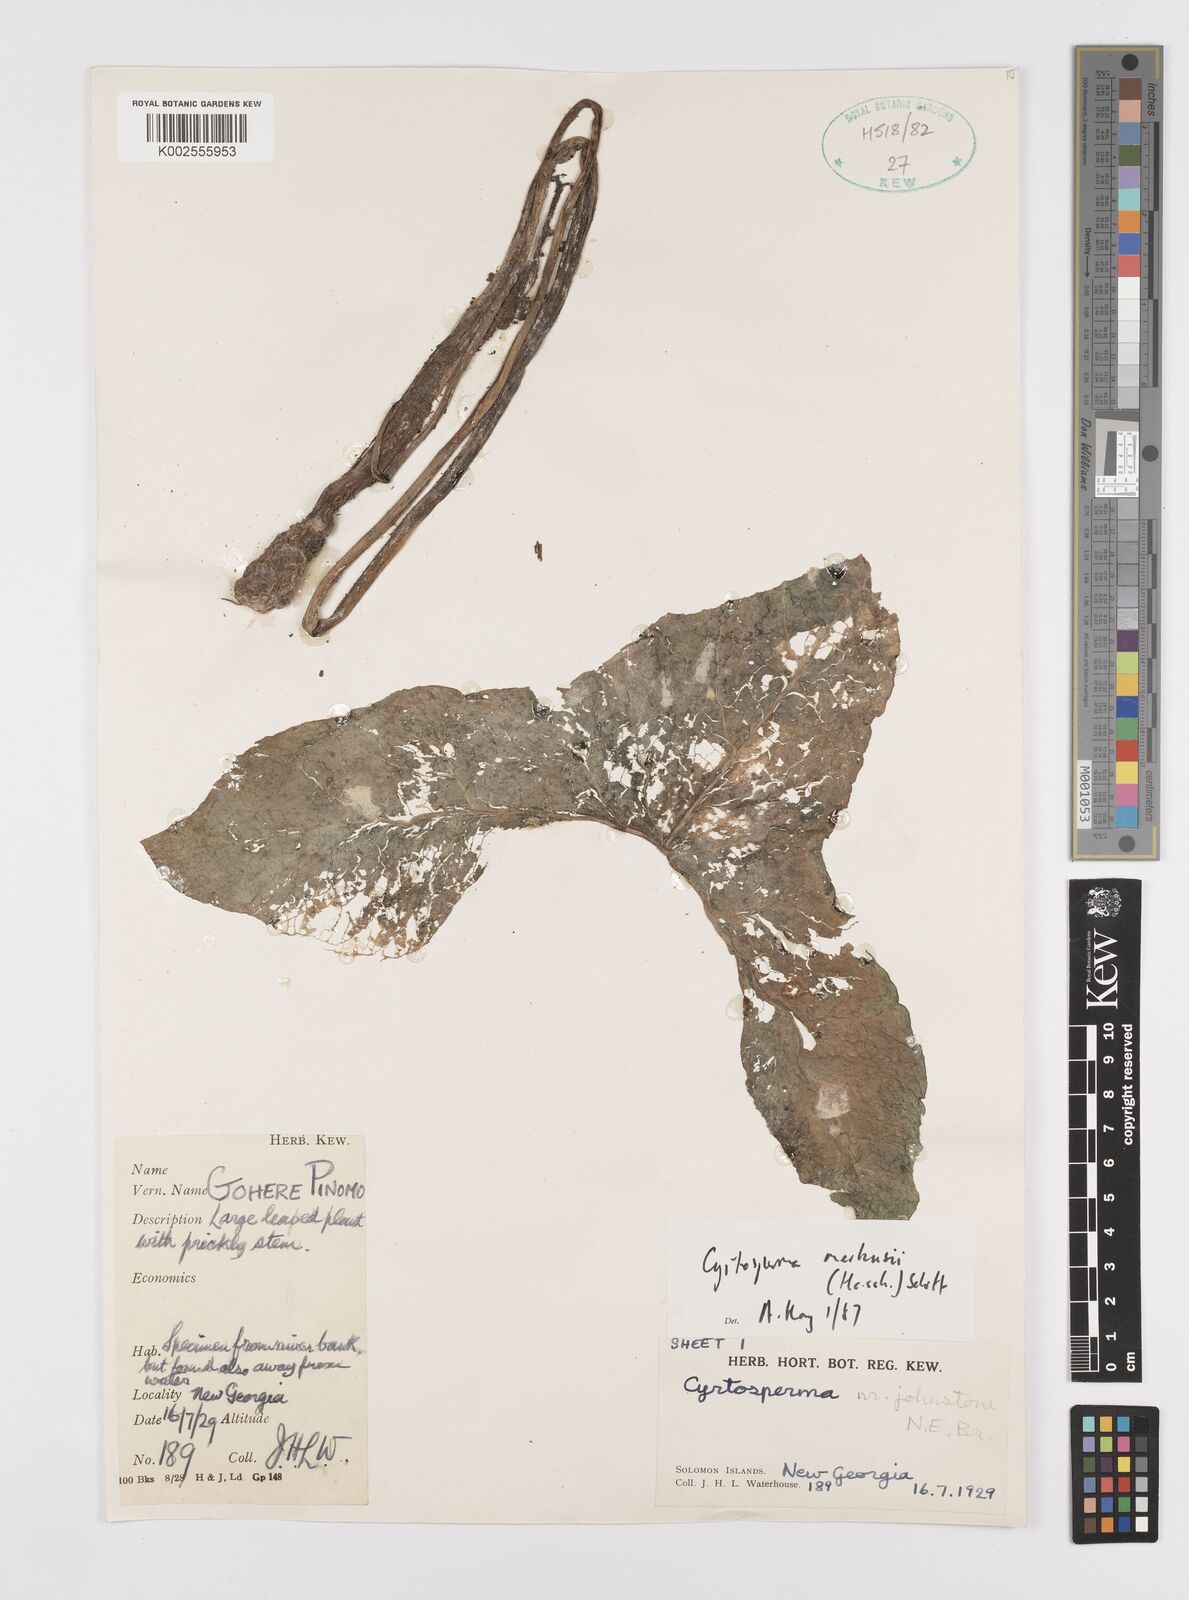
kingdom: Plantae
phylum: Tracheophyta
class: Liliopsida
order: Alismatales
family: Araceae
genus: Cyrtosperma
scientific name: Cyrtosperma merkusii
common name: Giant swamp-taro
